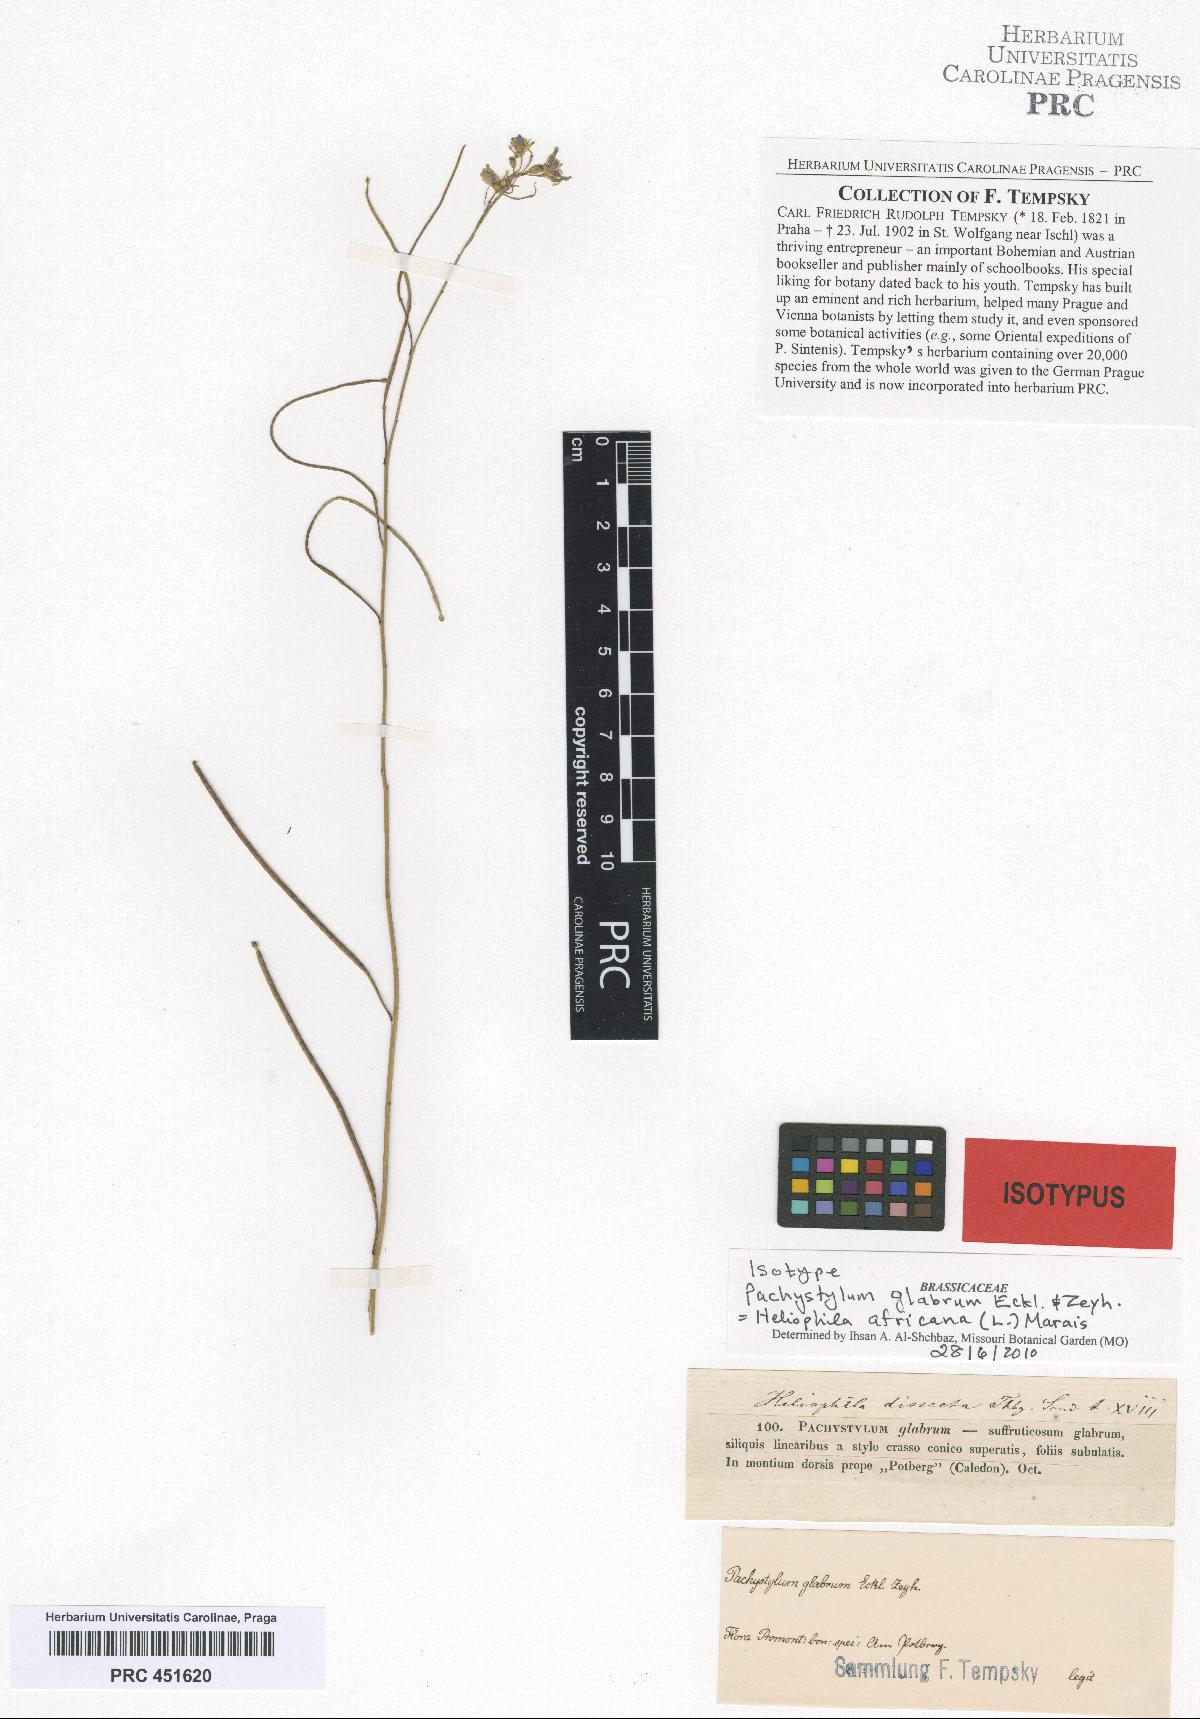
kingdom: Plantae
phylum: Tracheophyta
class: Magnoliopsida
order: Brassicales
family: Brassicaceae
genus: Heliophila
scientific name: Heliophila africana
